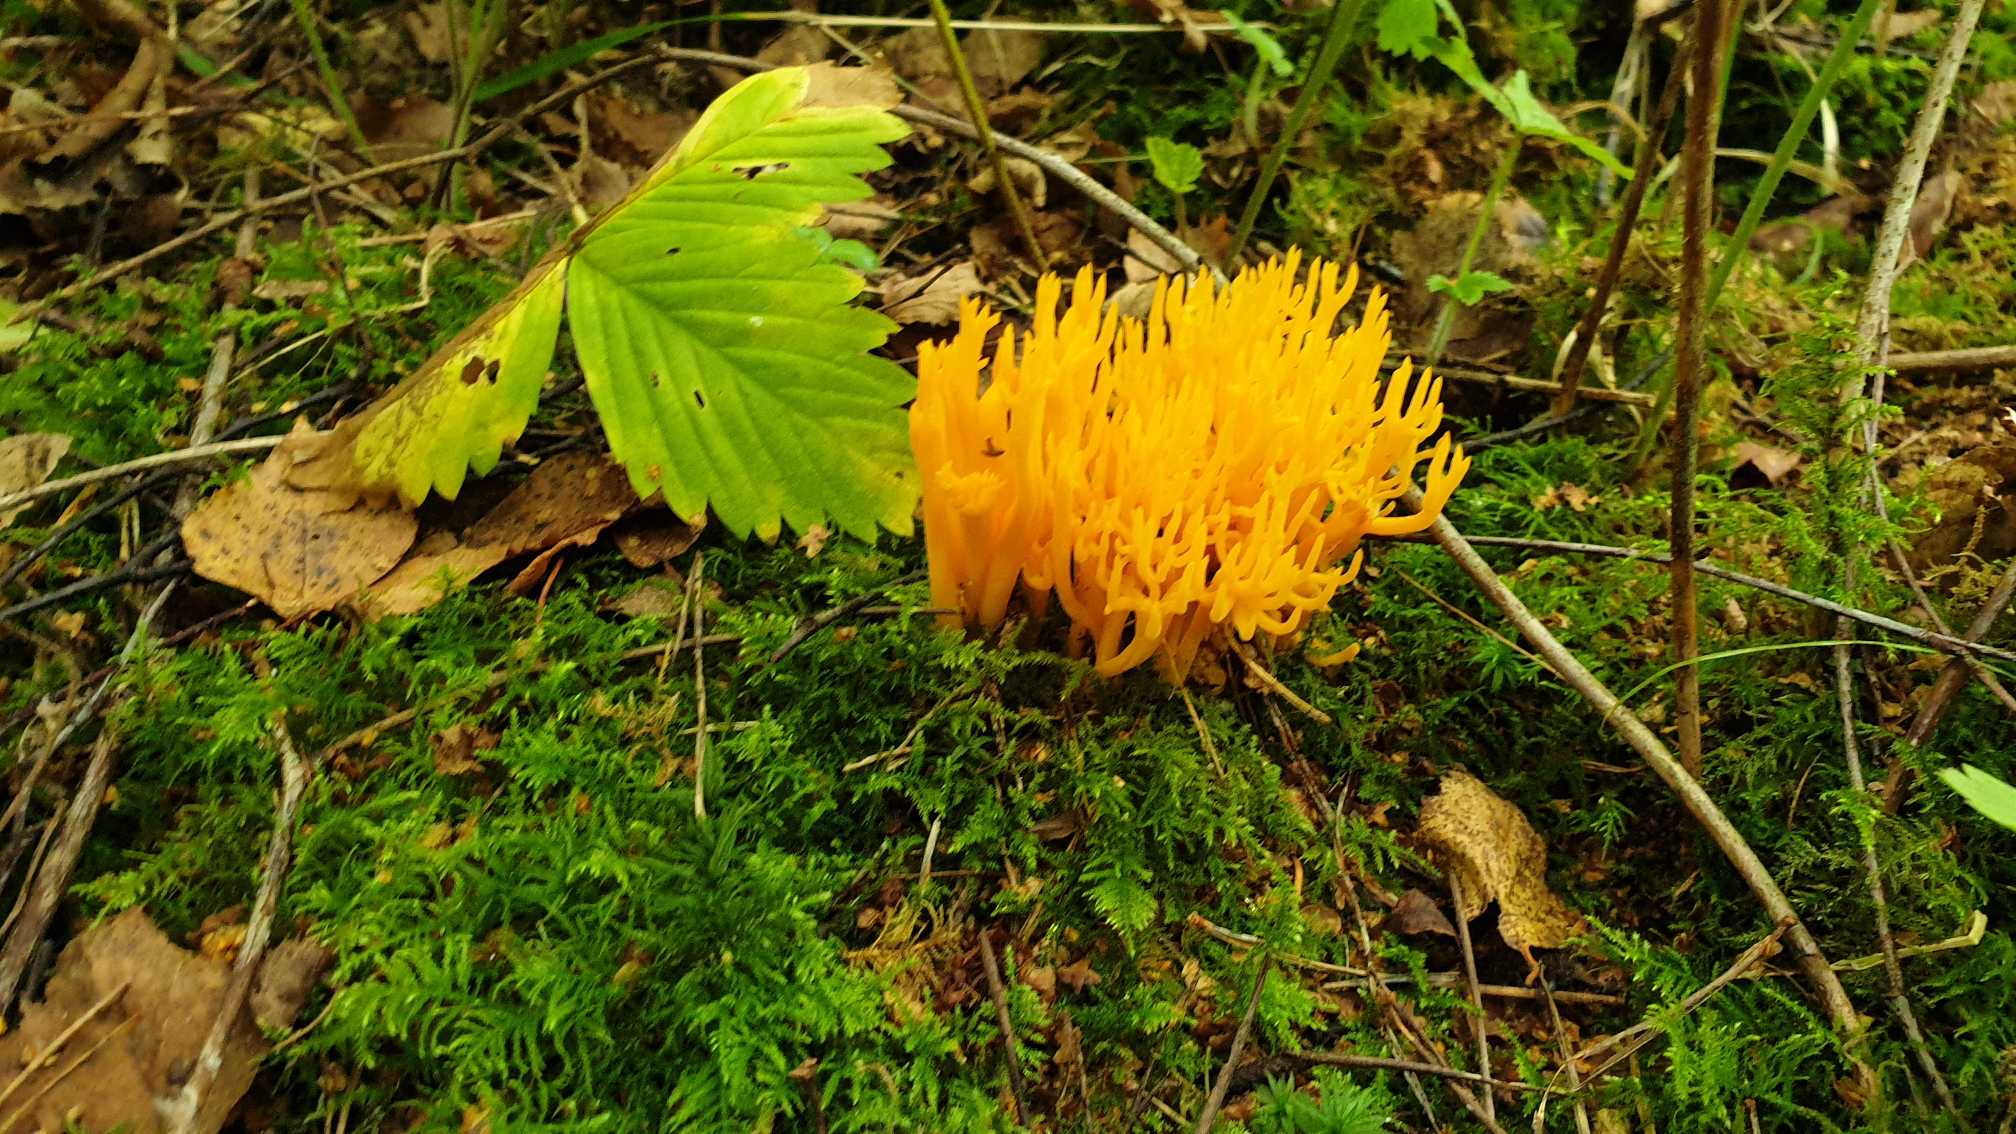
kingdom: Fungi
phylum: Basidiomycota
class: Dacrymycetes
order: Dacrymycetales
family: Dacrymycetaceae
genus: Calocera
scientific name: Calocera viscosa
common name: Almindelig guldgaffel
